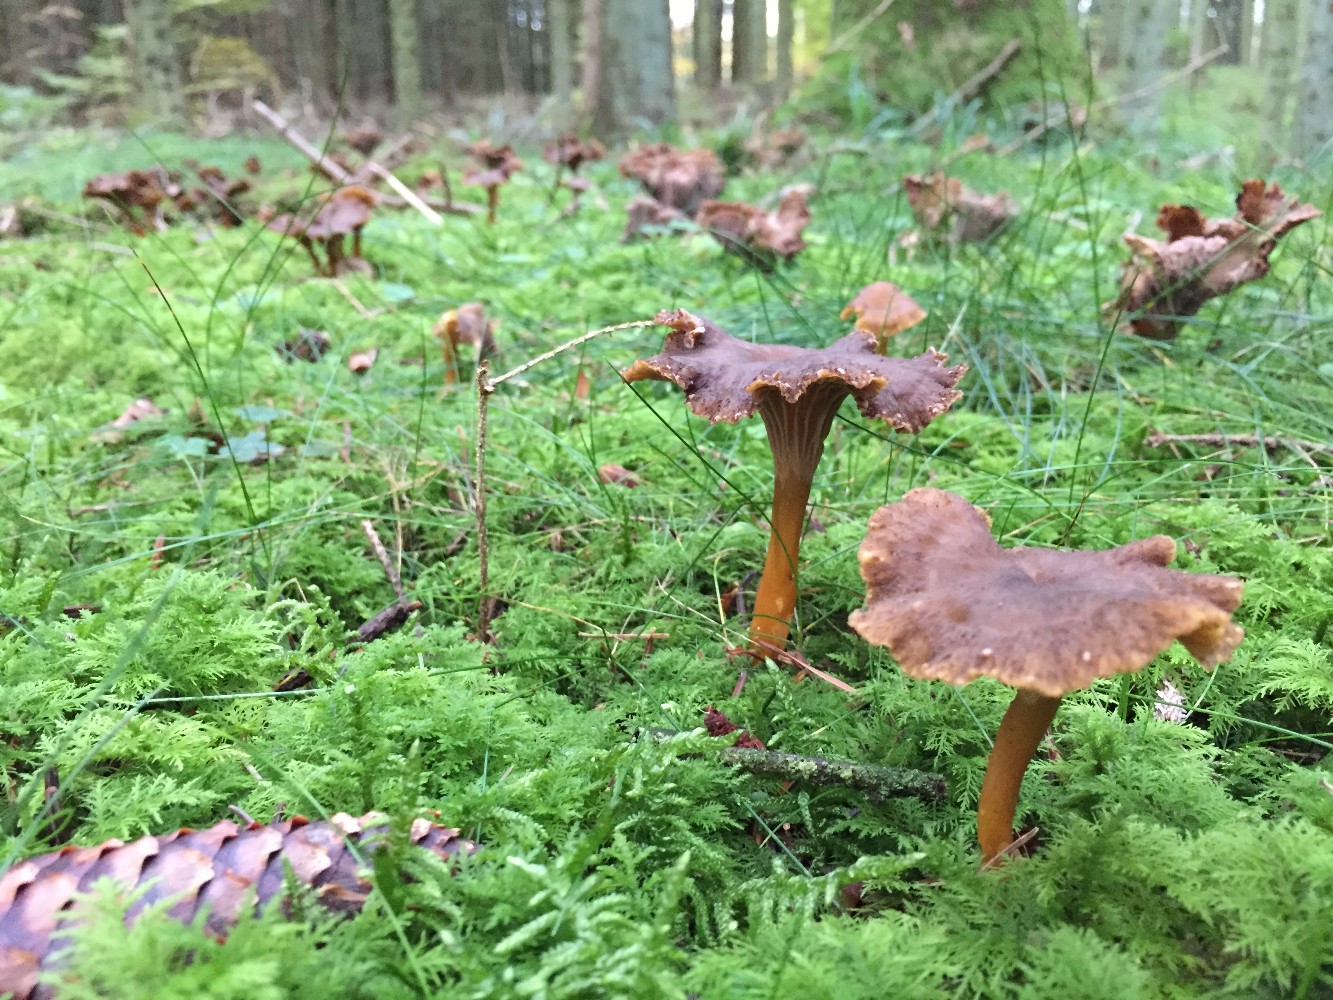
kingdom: Fungi
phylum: Basidiomycota
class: Agaricomycetes
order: Cantharellales
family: Hydnaceae
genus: Craterellus
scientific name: Craterellus tubaeformis
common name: tragt-kantarel
